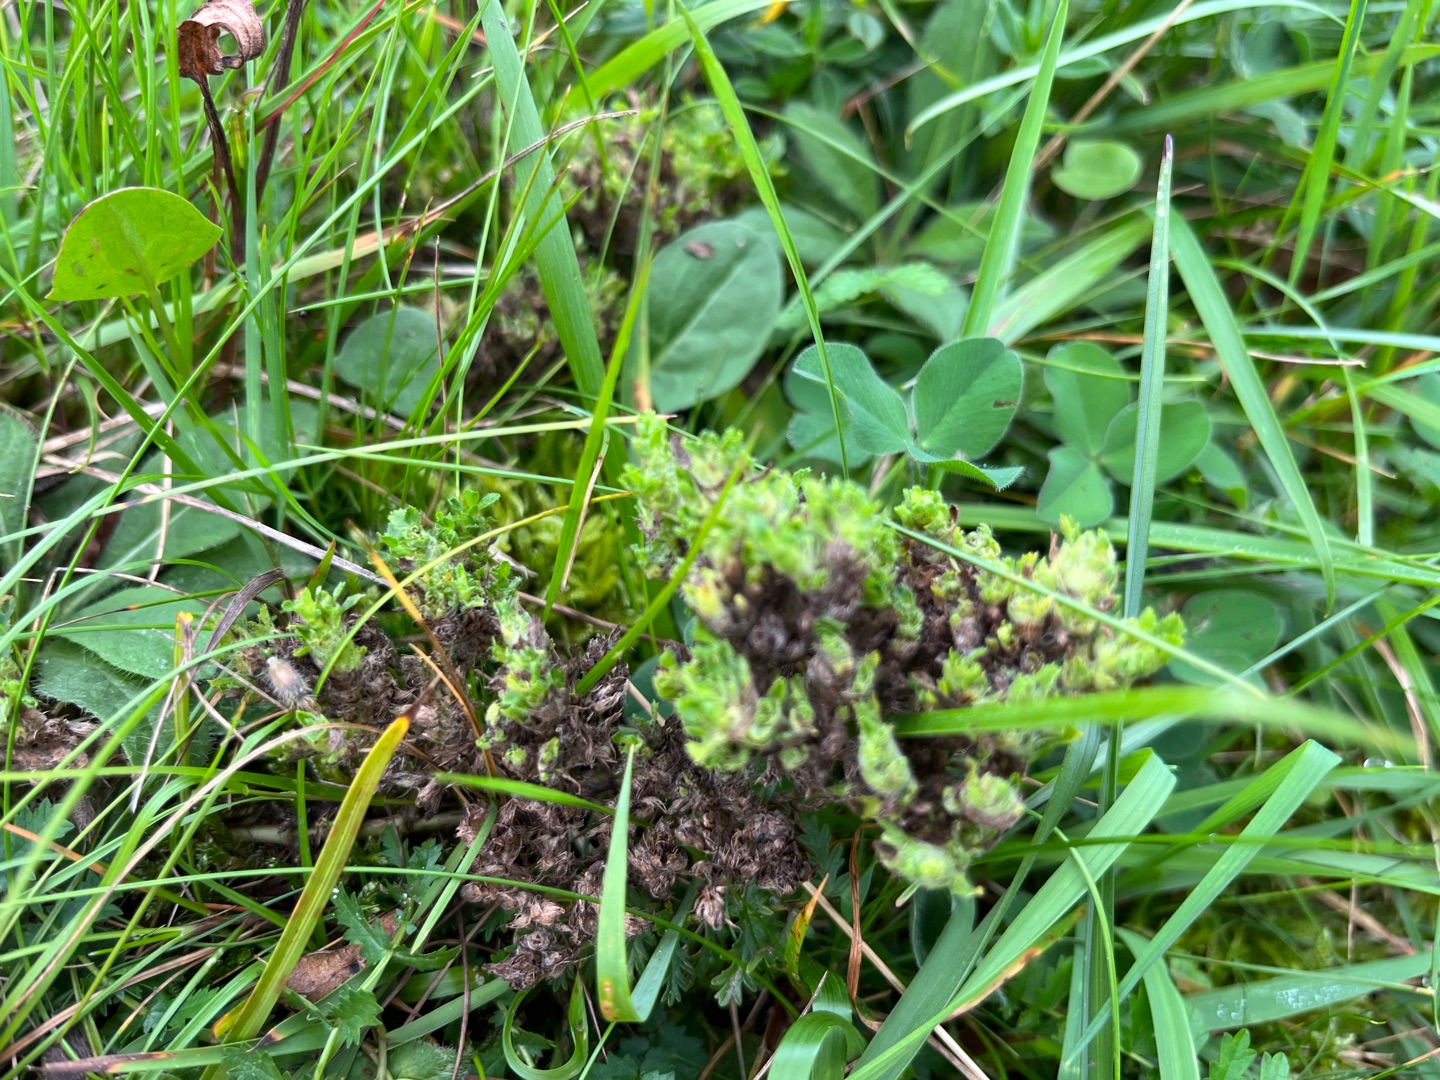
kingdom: Animalia
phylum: Arthropoda
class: Arachnida
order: Trombidiformes
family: Eriophyidae
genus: Aceria
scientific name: Aceria ononidis
